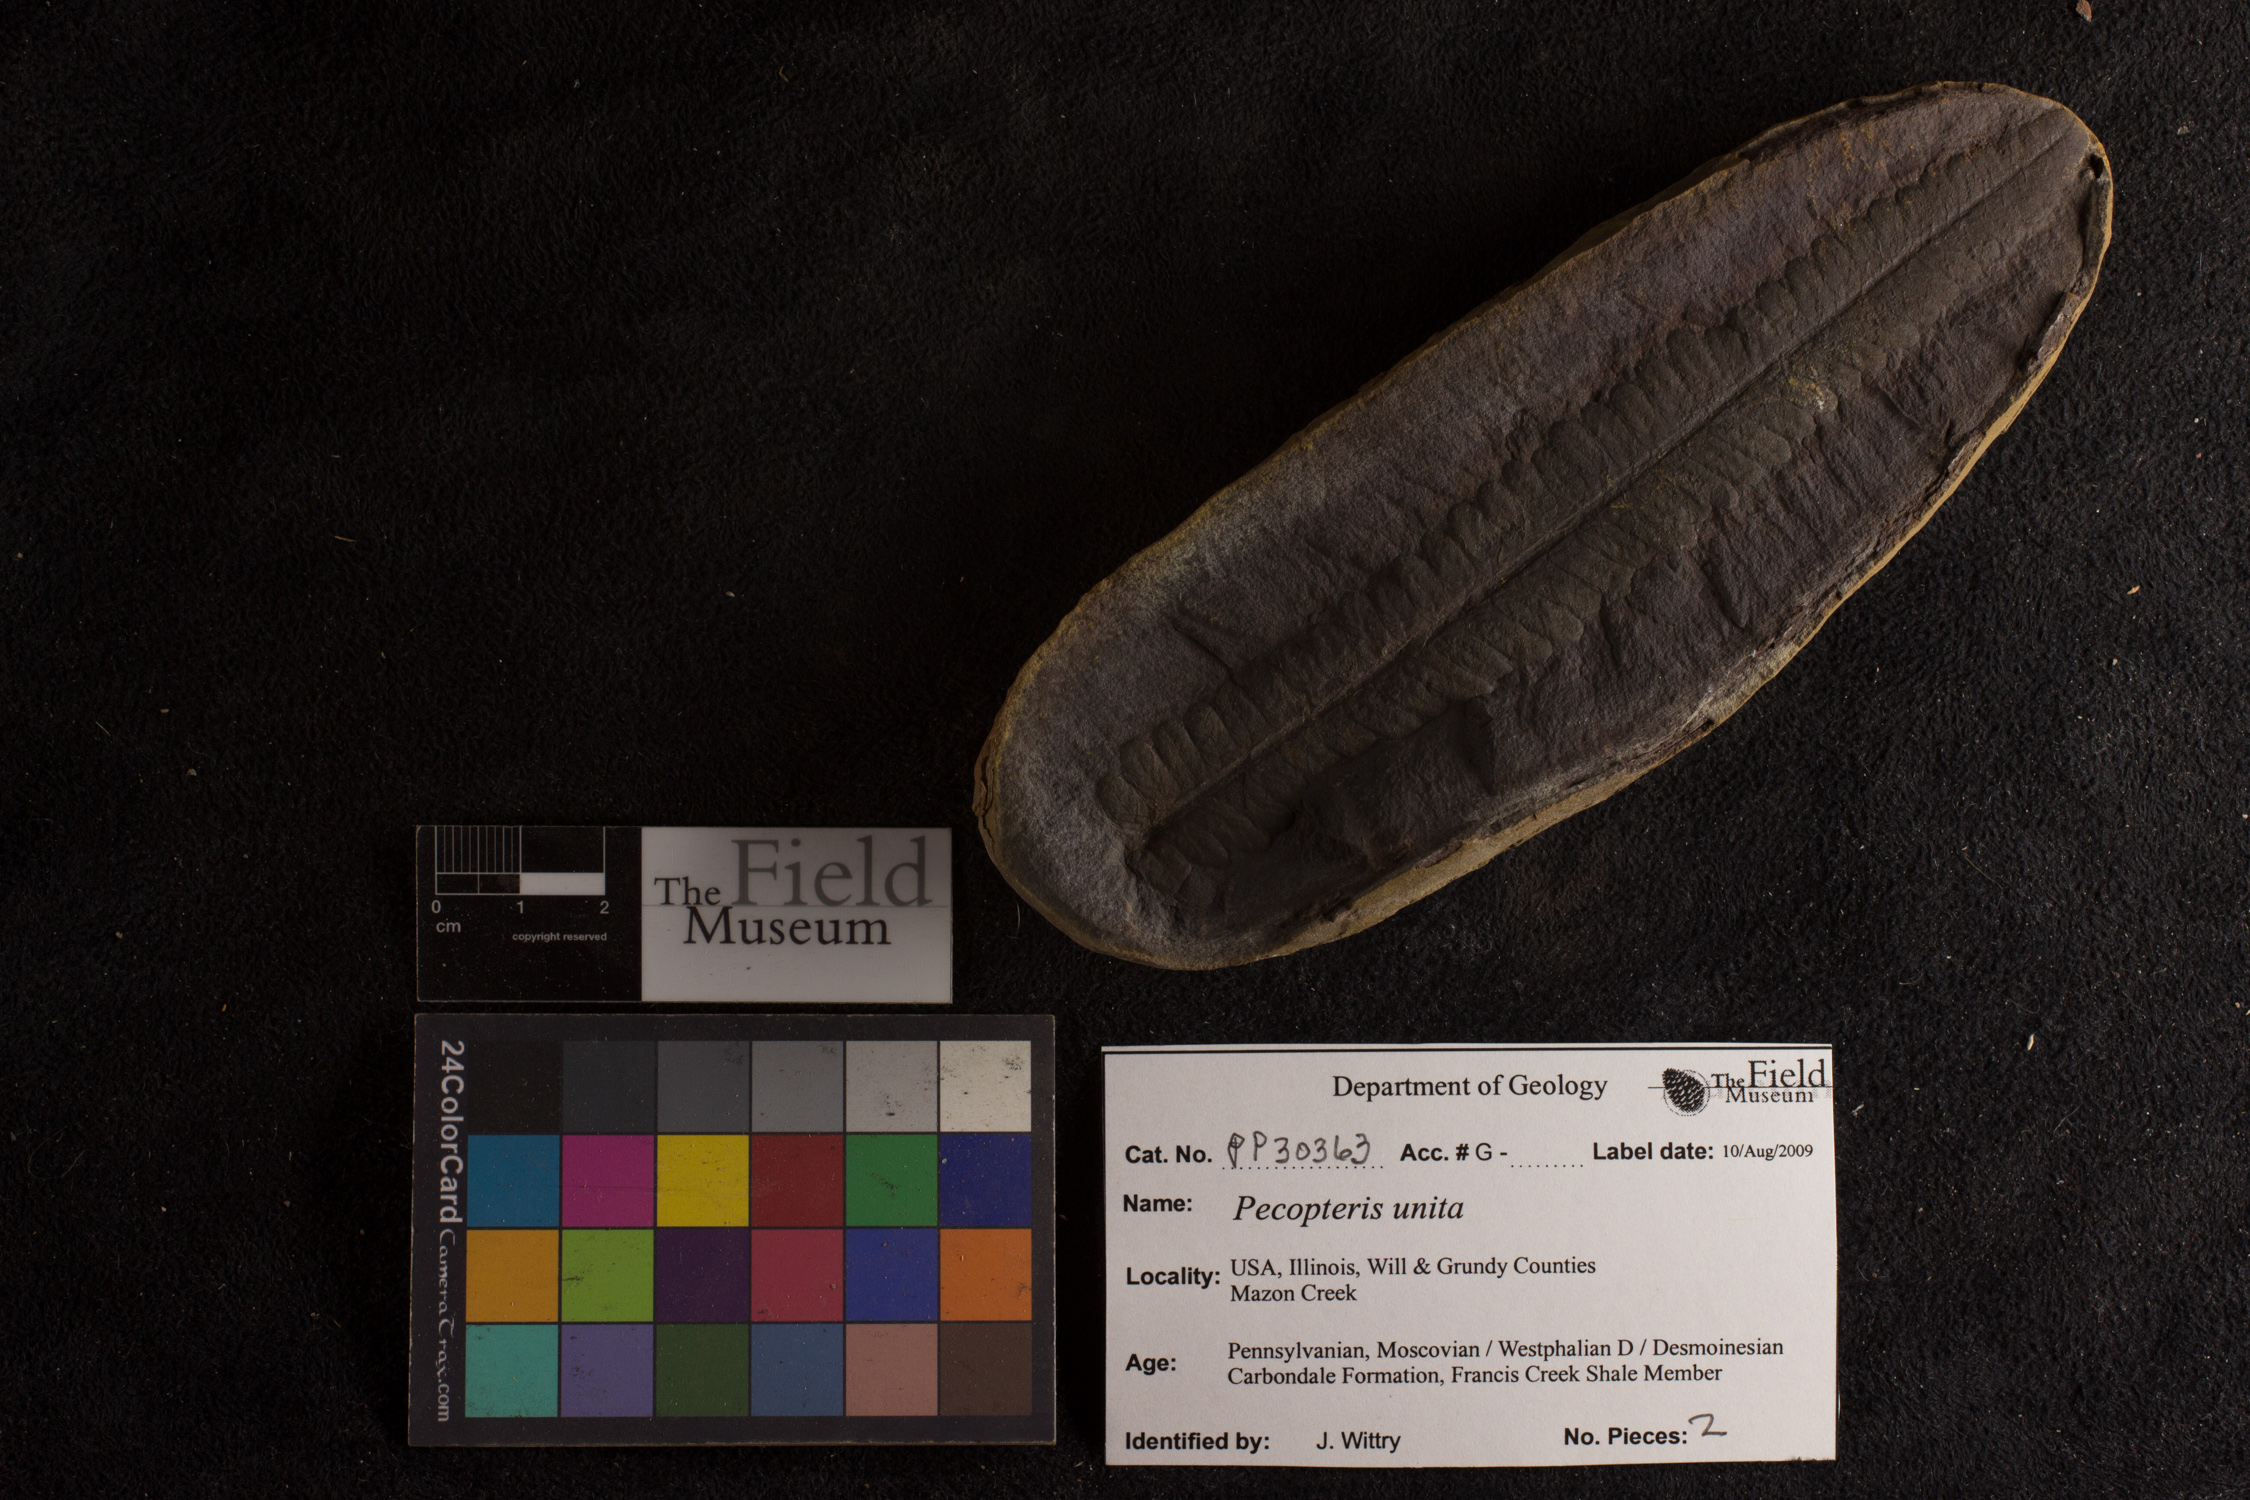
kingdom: Plantae
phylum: Tracheophyta
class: Polypodiopsida
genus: Diplazites
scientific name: Diplazites
